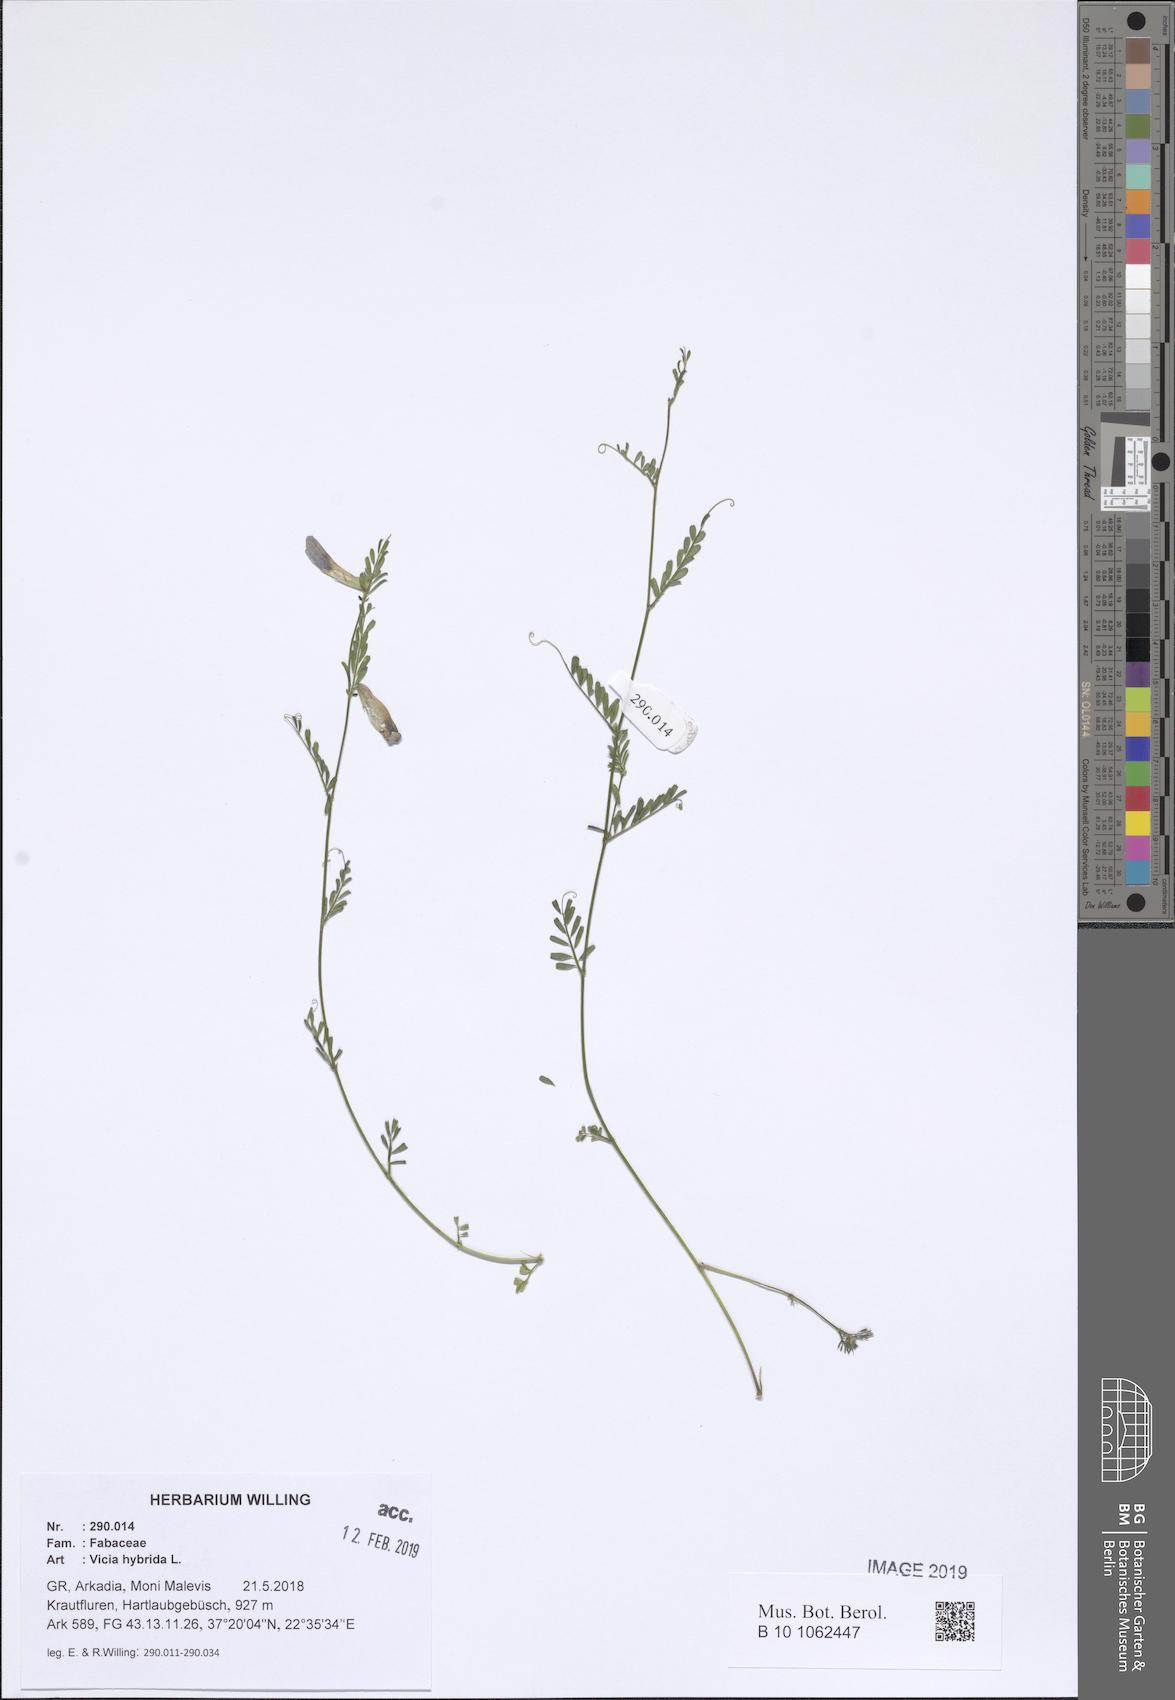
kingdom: Plantae
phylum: Tracheophyta
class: Magnoliopsida
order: Fabales
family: Fabaceae
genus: Vicia
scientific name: Vicia hybrida
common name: Hairy yellow vetch
